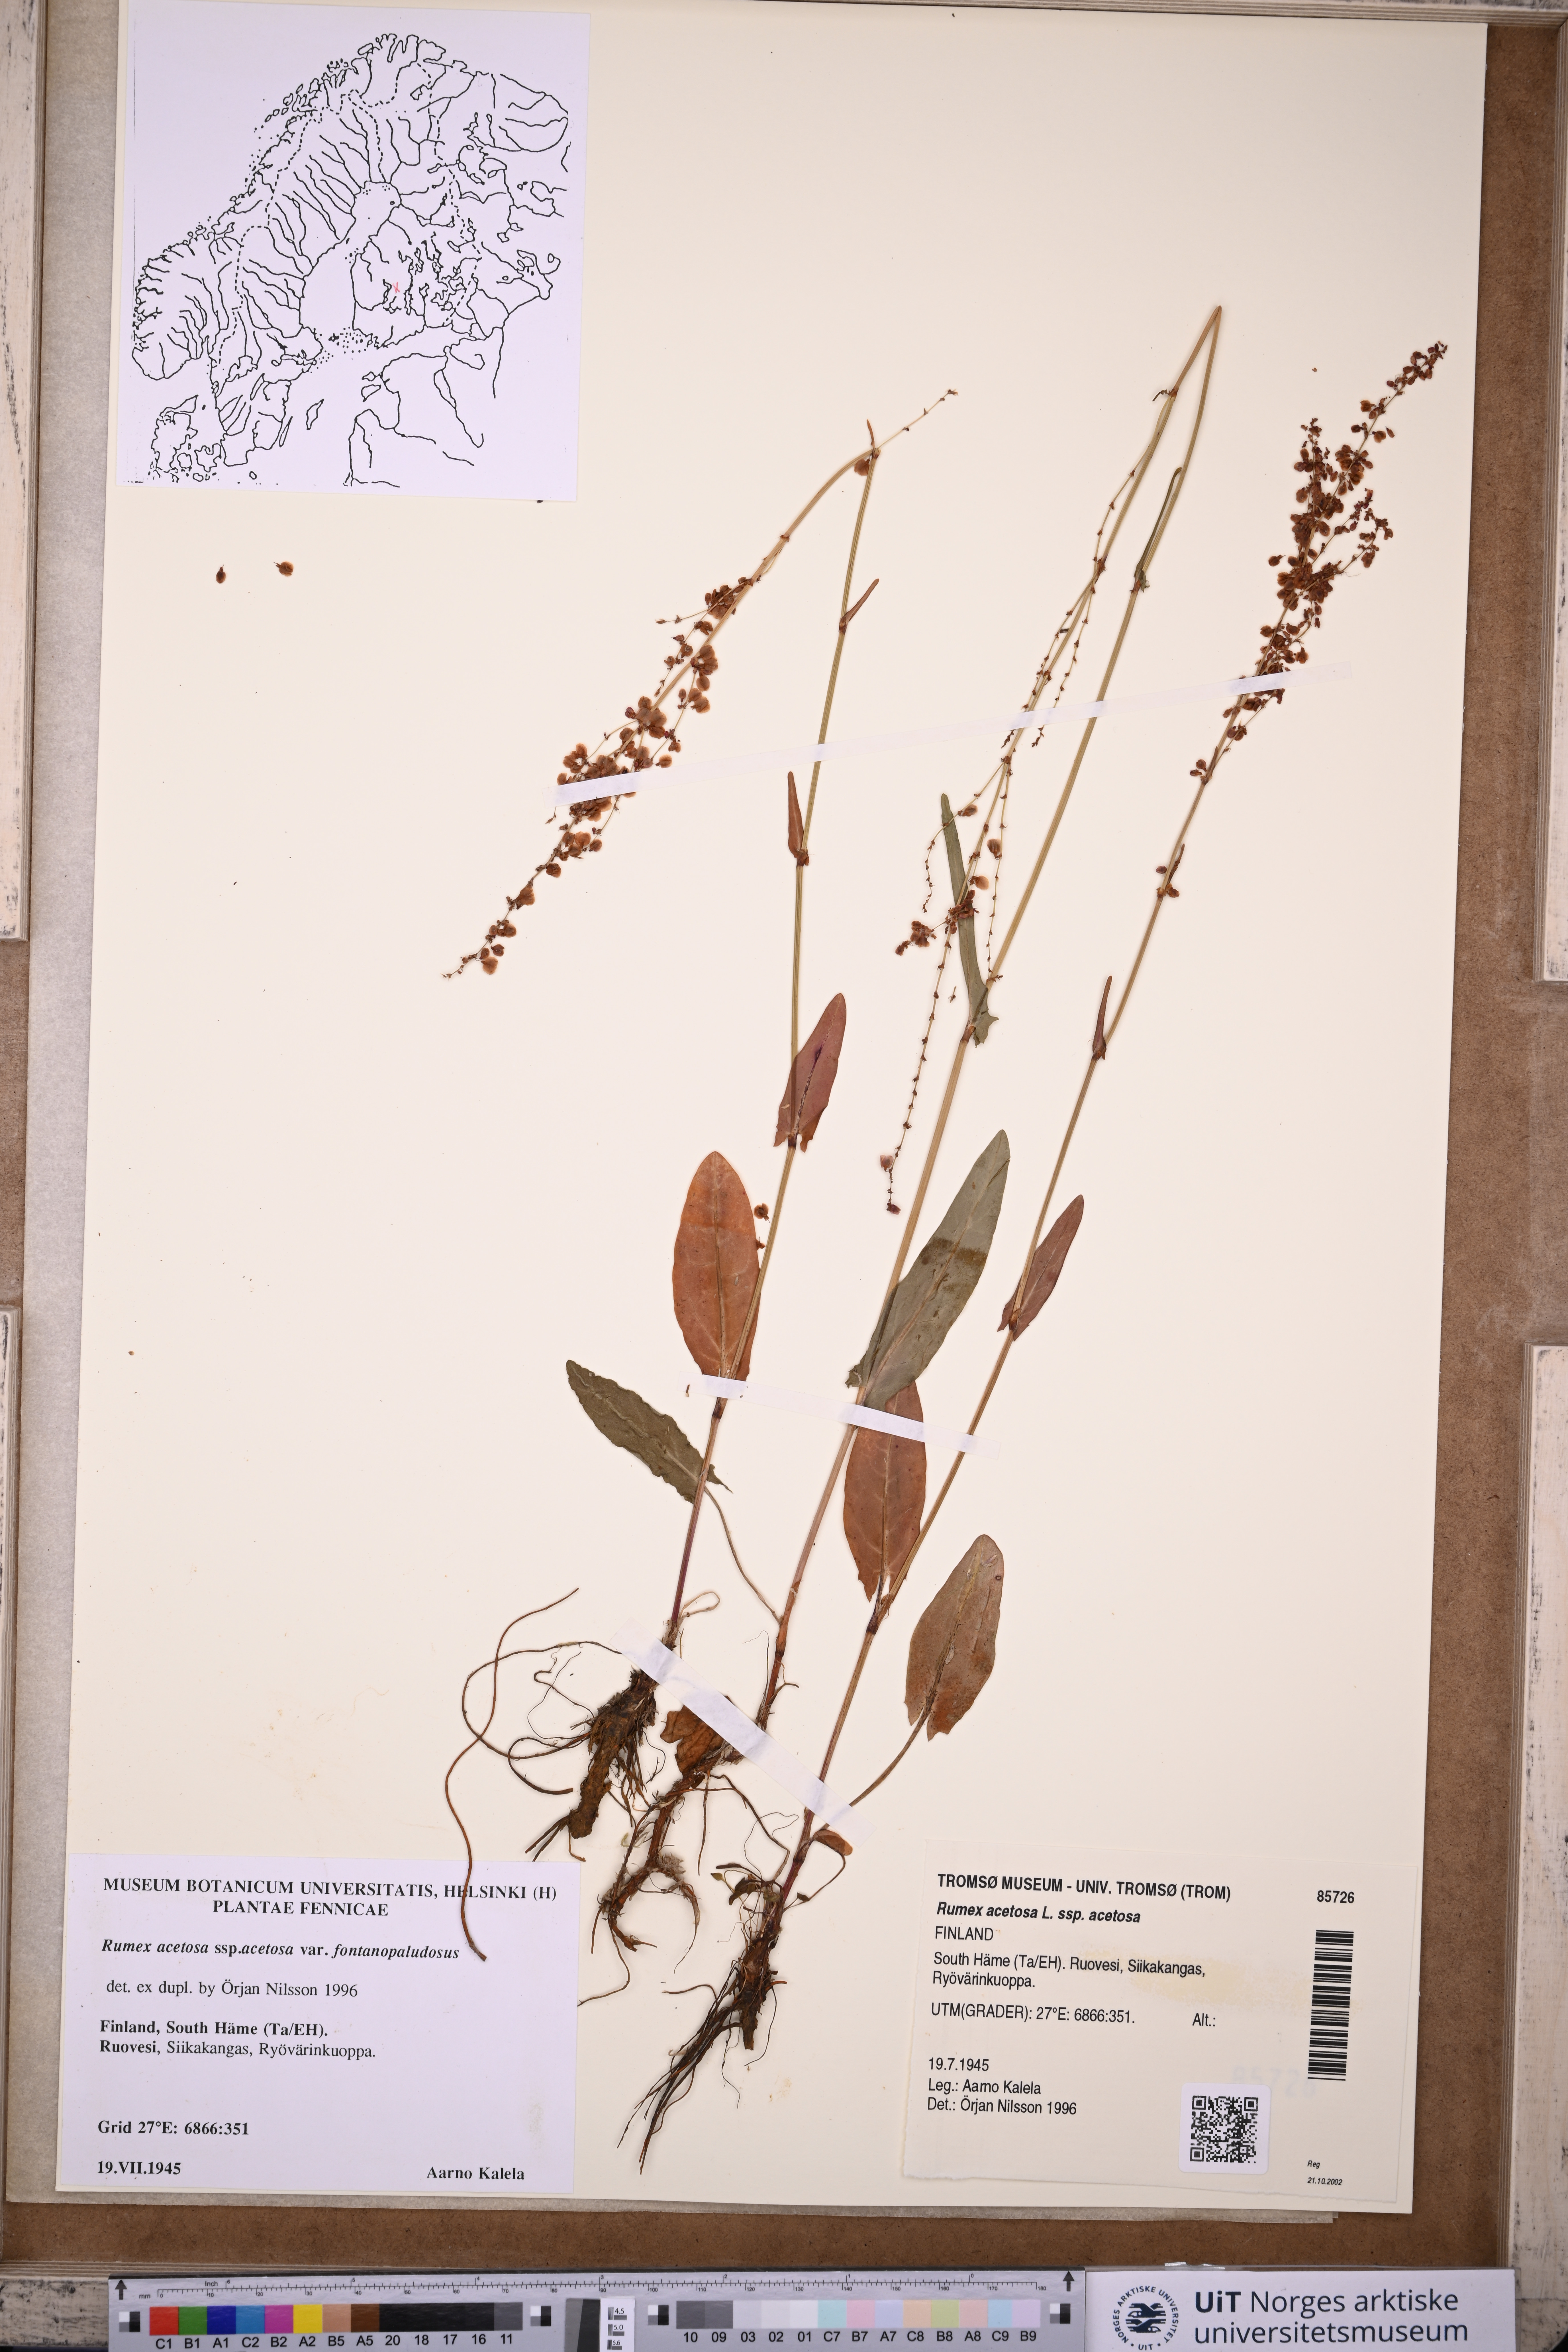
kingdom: Plantae
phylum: Tracheophyta
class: Magnoliopsida
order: Caryophyllales
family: Polygonaceae
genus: Rumex
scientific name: Rumex acetosa
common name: Garden sorrel
